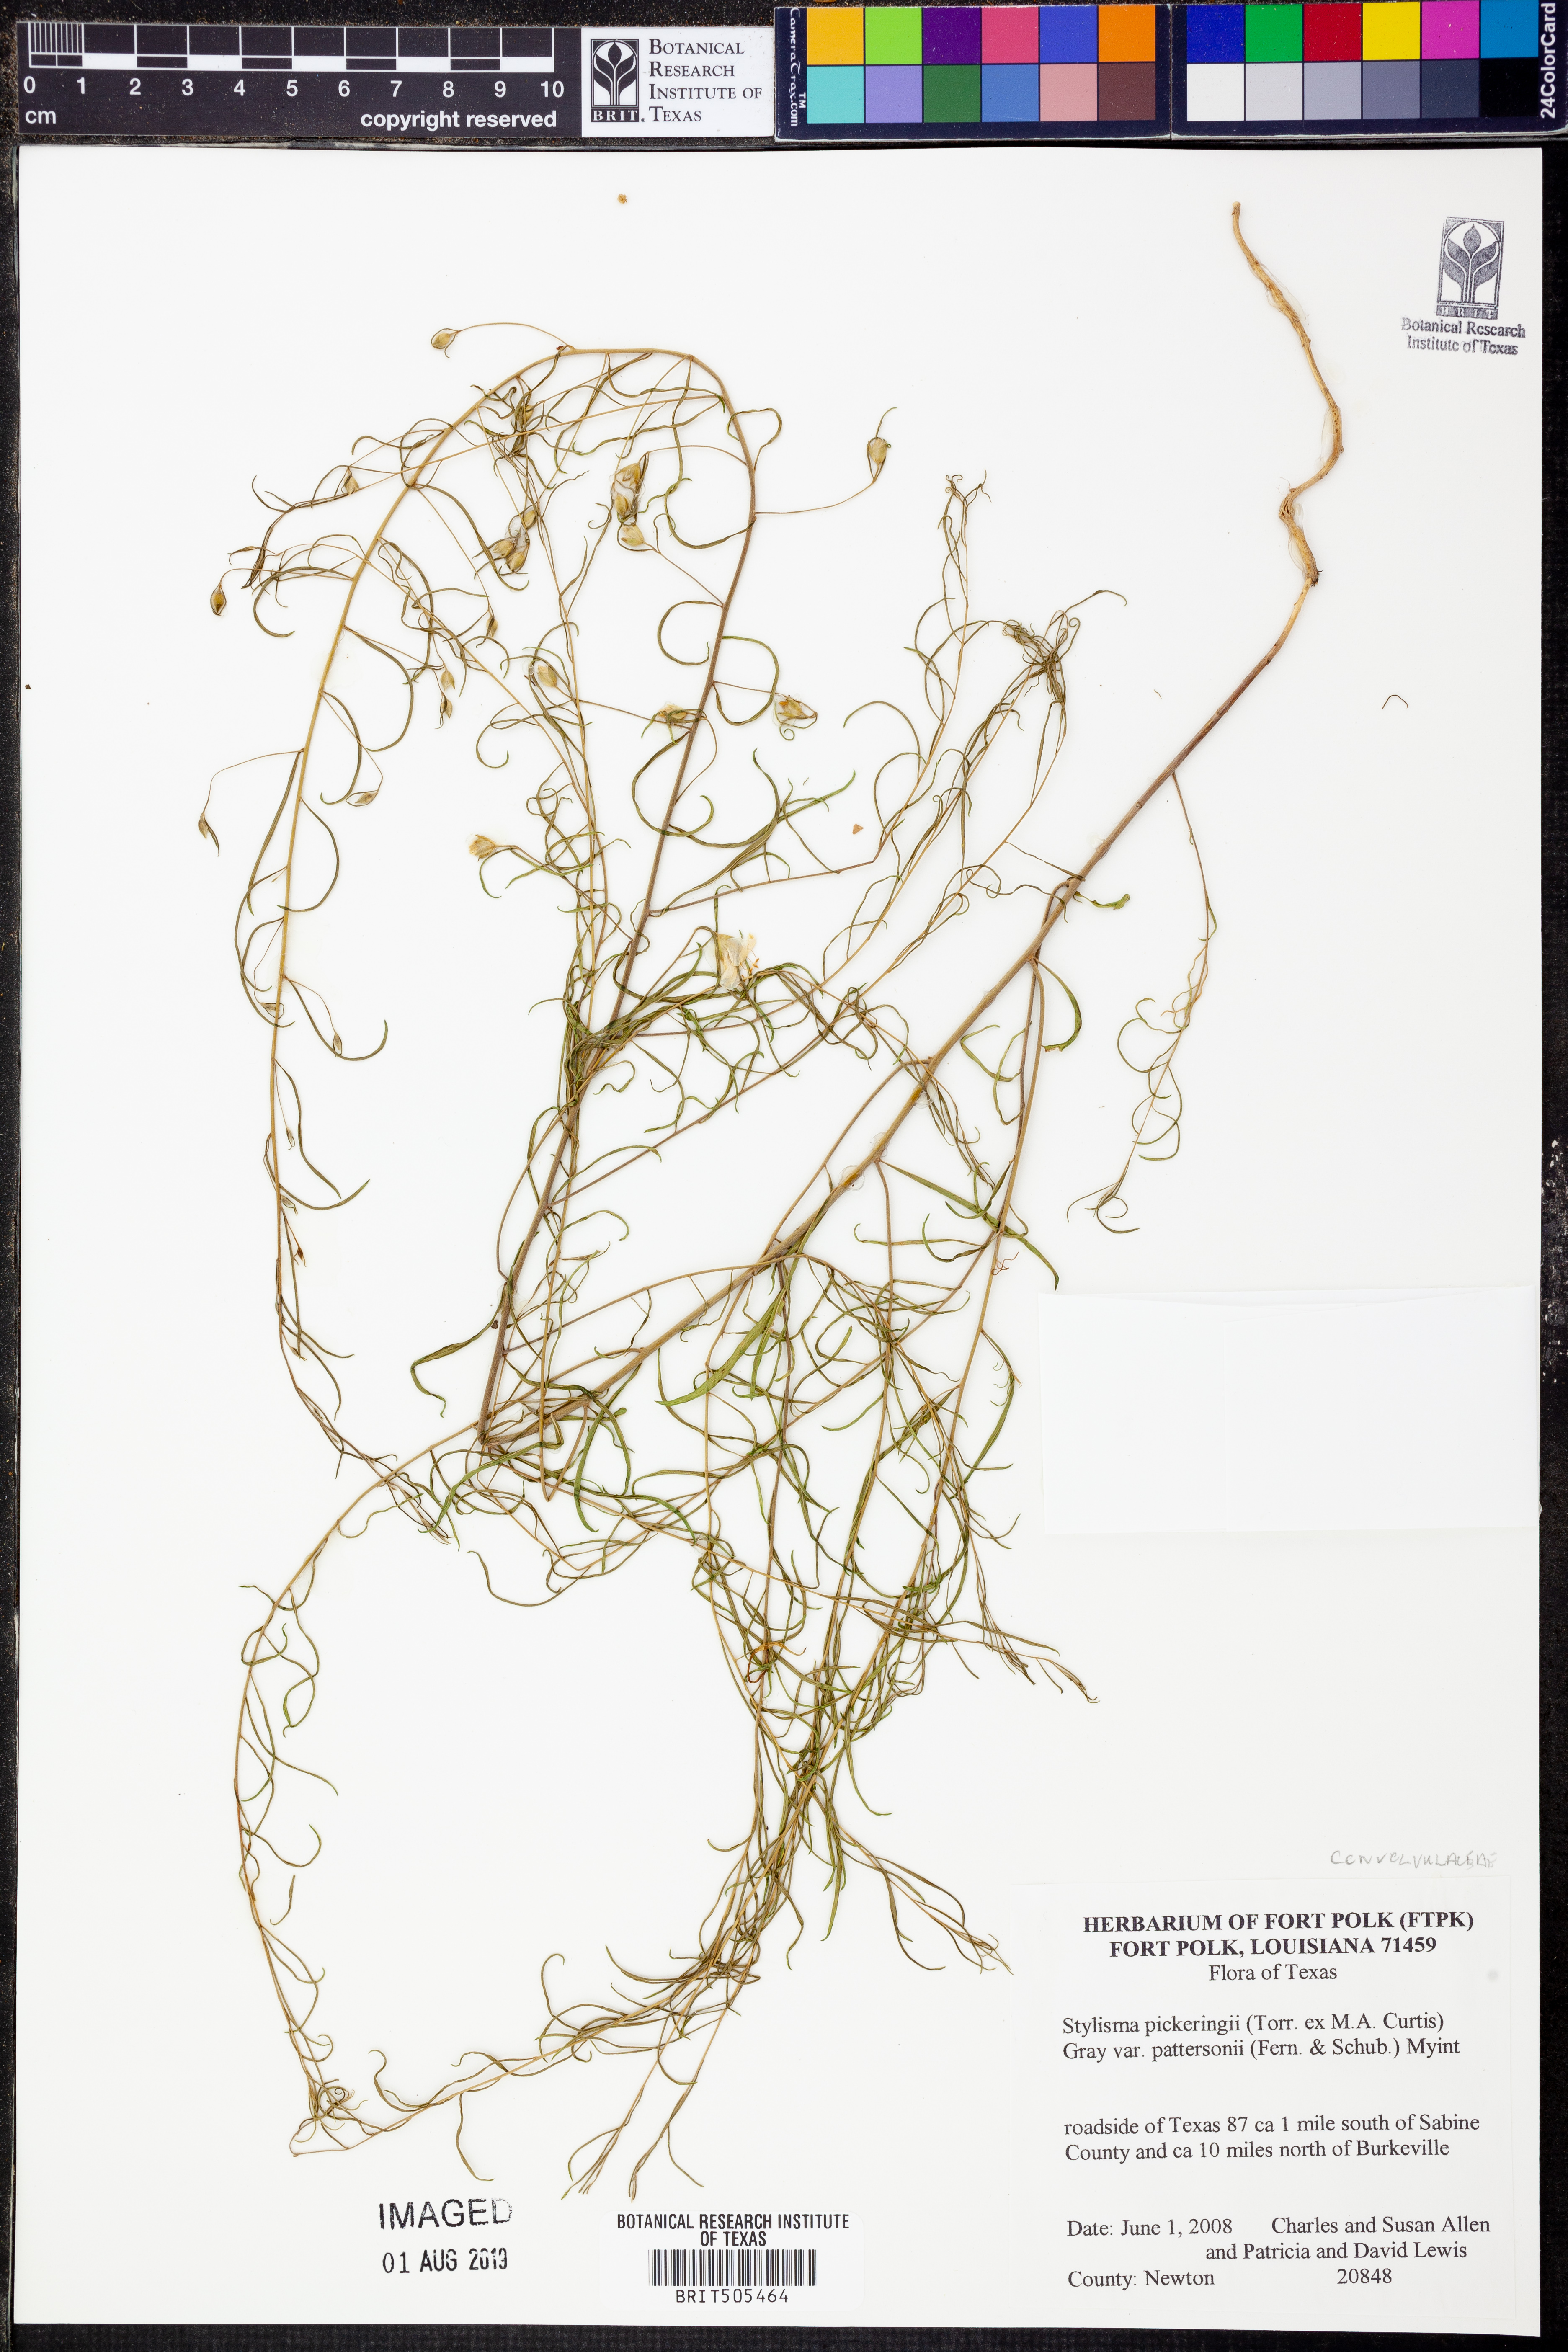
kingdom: Plantae
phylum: Tracheophyta
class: Magnoliopsida
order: Solanales
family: Convolvulaceae
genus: Stylisma
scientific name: Stylisma pickeringii
